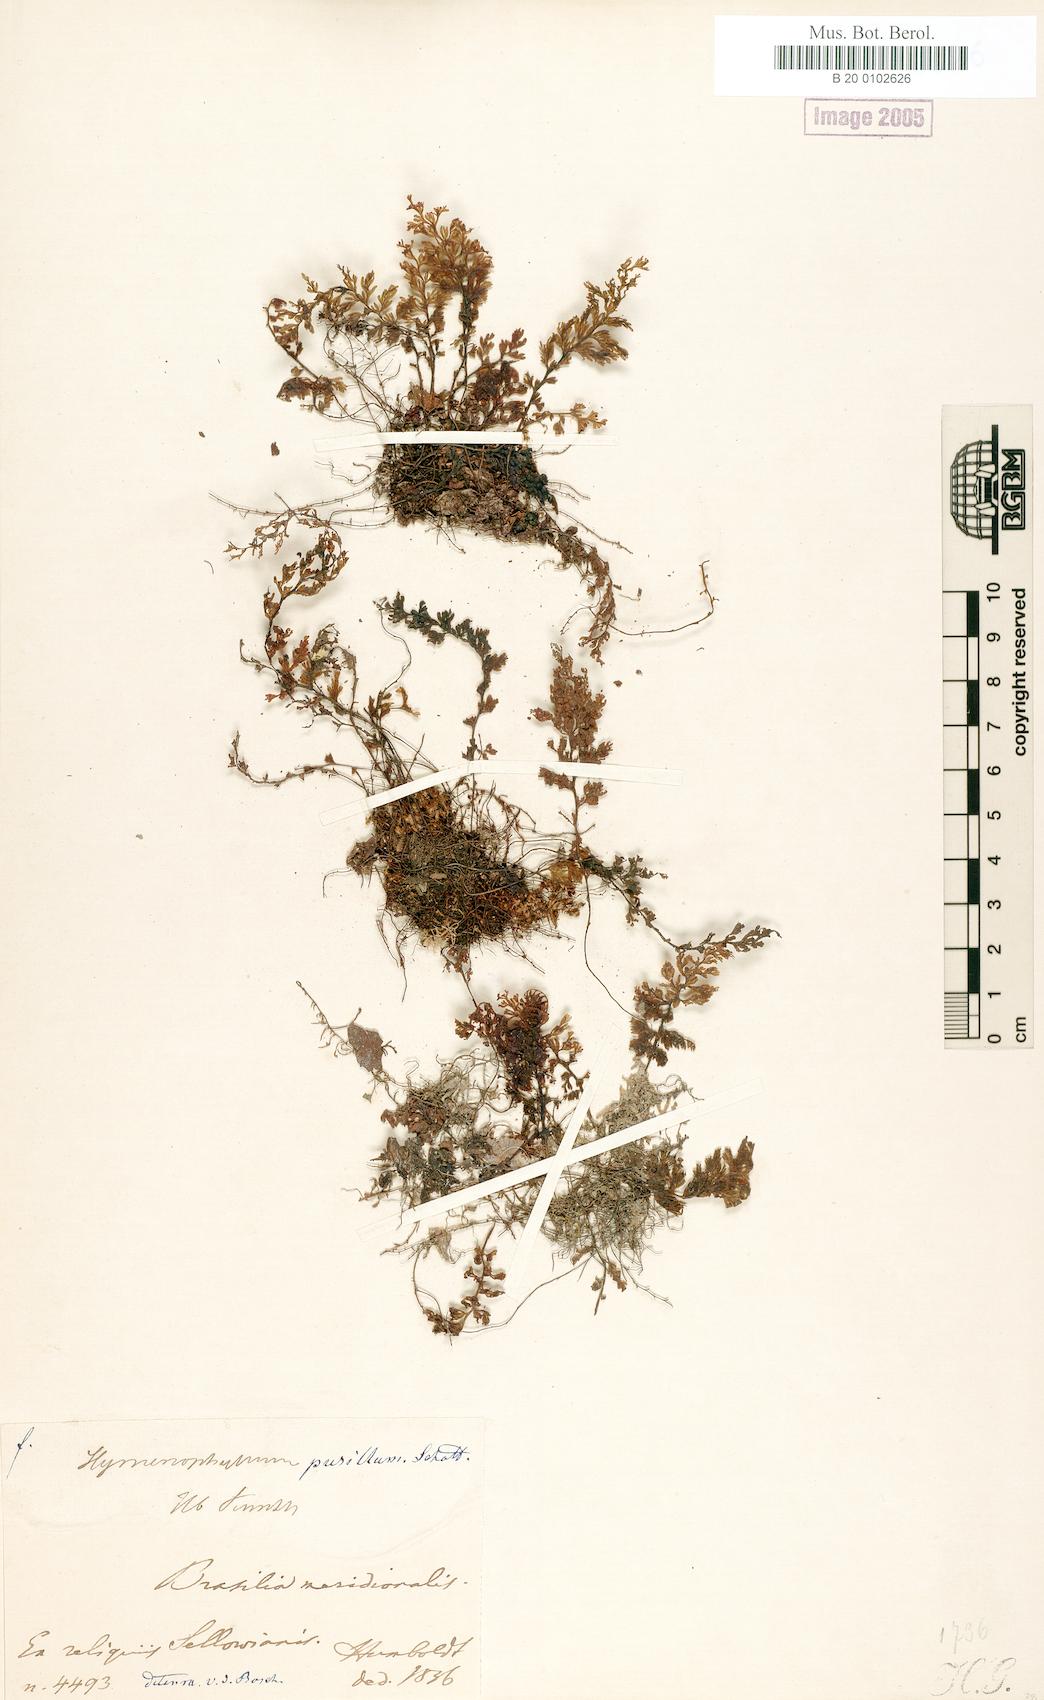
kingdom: Plantae
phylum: Tracheophyta
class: Polypodiopsida
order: Hymenophyllales
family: Hymenophyllaceae
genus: Hymenophyllum
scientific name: Hymenophyllum trichomanoides
